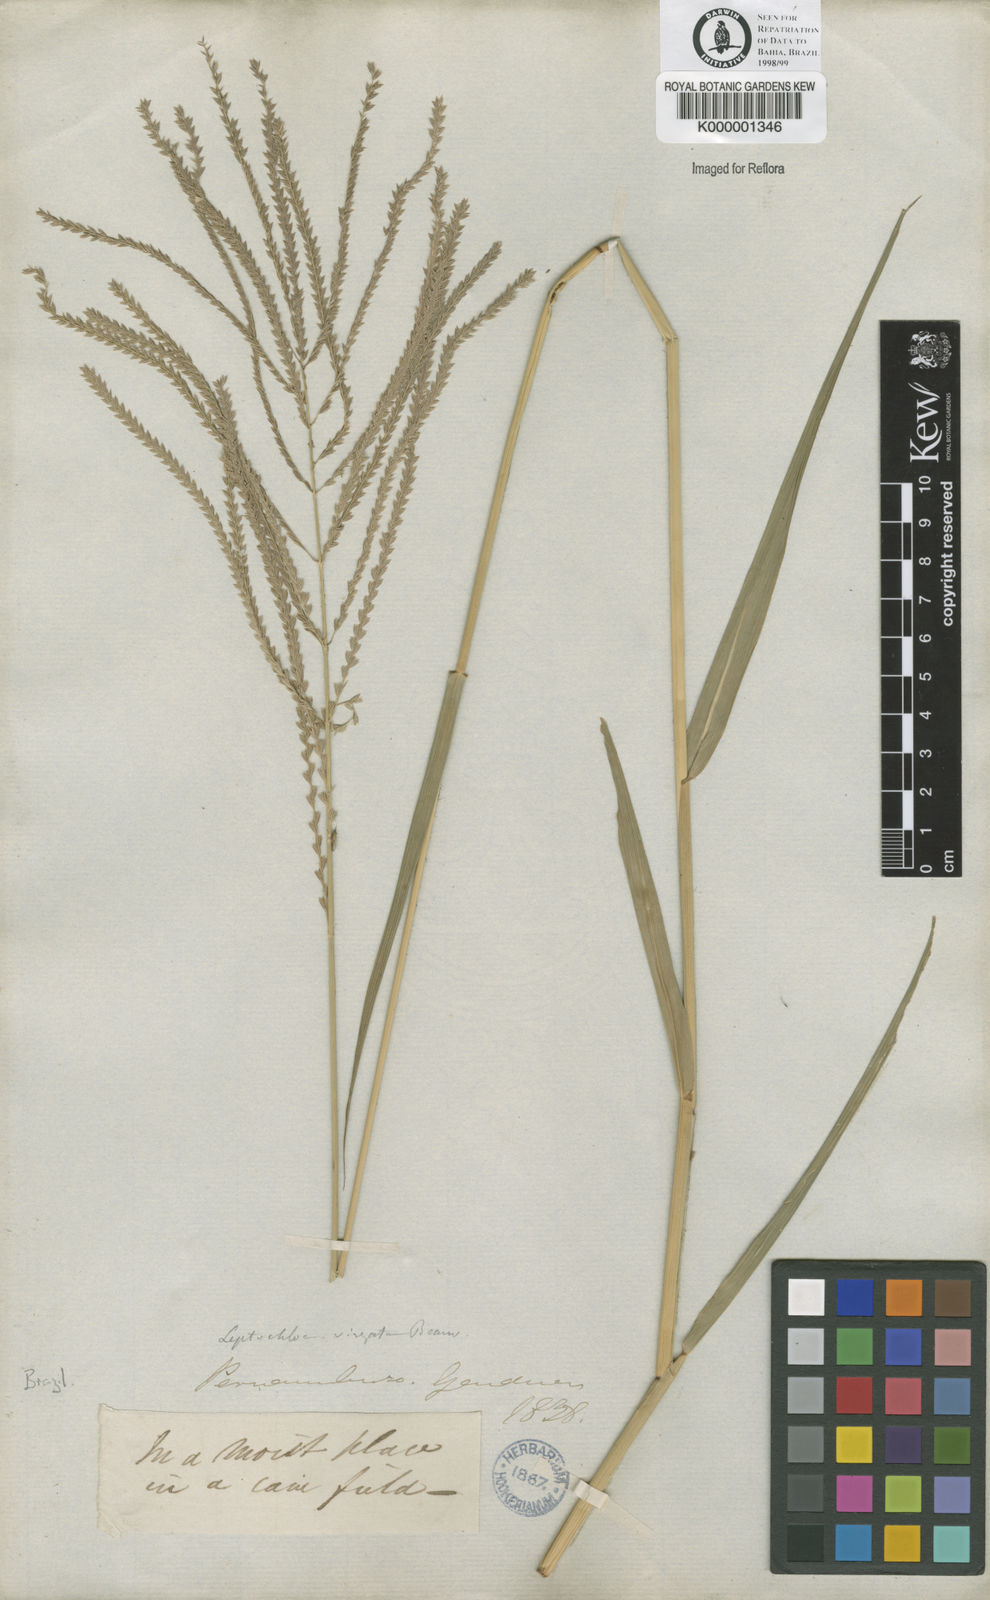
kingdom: Plantae
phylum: Tracheophyta
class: Liliopsida
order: Poales
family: Poaceae
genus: Leptochloa
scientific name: Leptochloa virgata
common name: Tropical sprangletop
